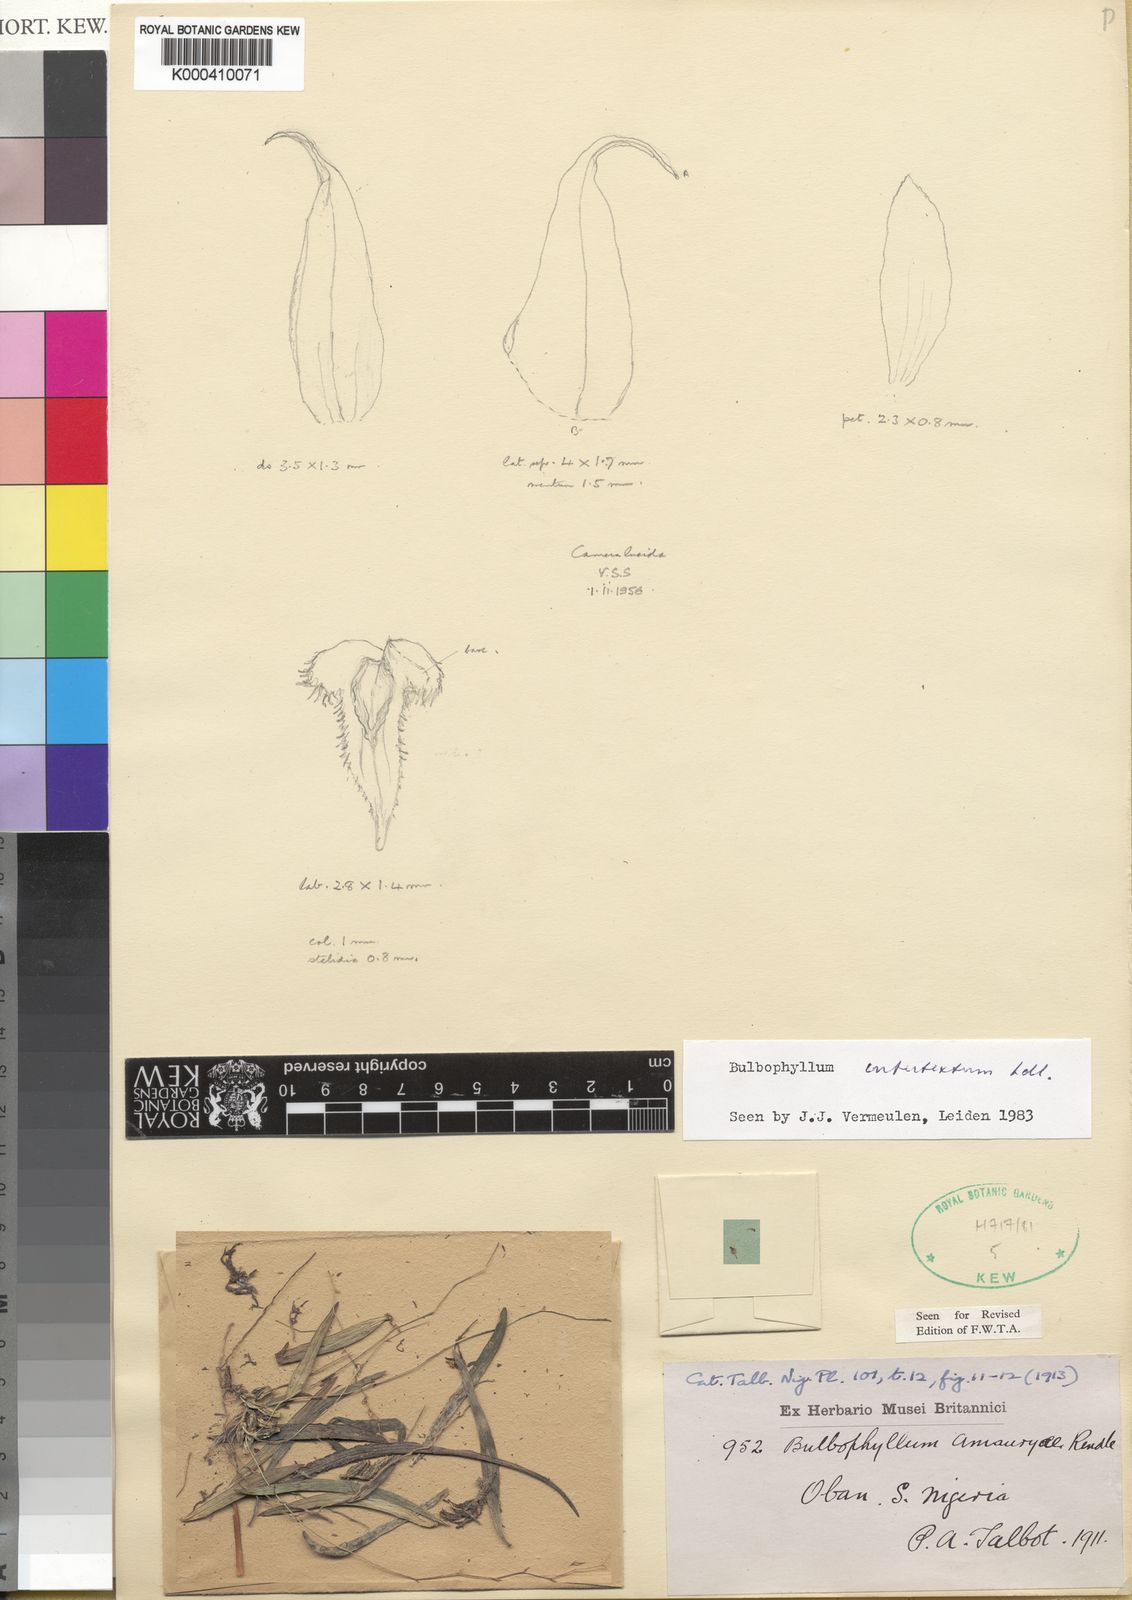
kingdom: Plantae
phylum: Tracheophyta
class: Liliopsida
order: Asparagales
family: Orchidaceae
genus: Bulbophyllum
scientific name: Bulbophyllum intertextum
